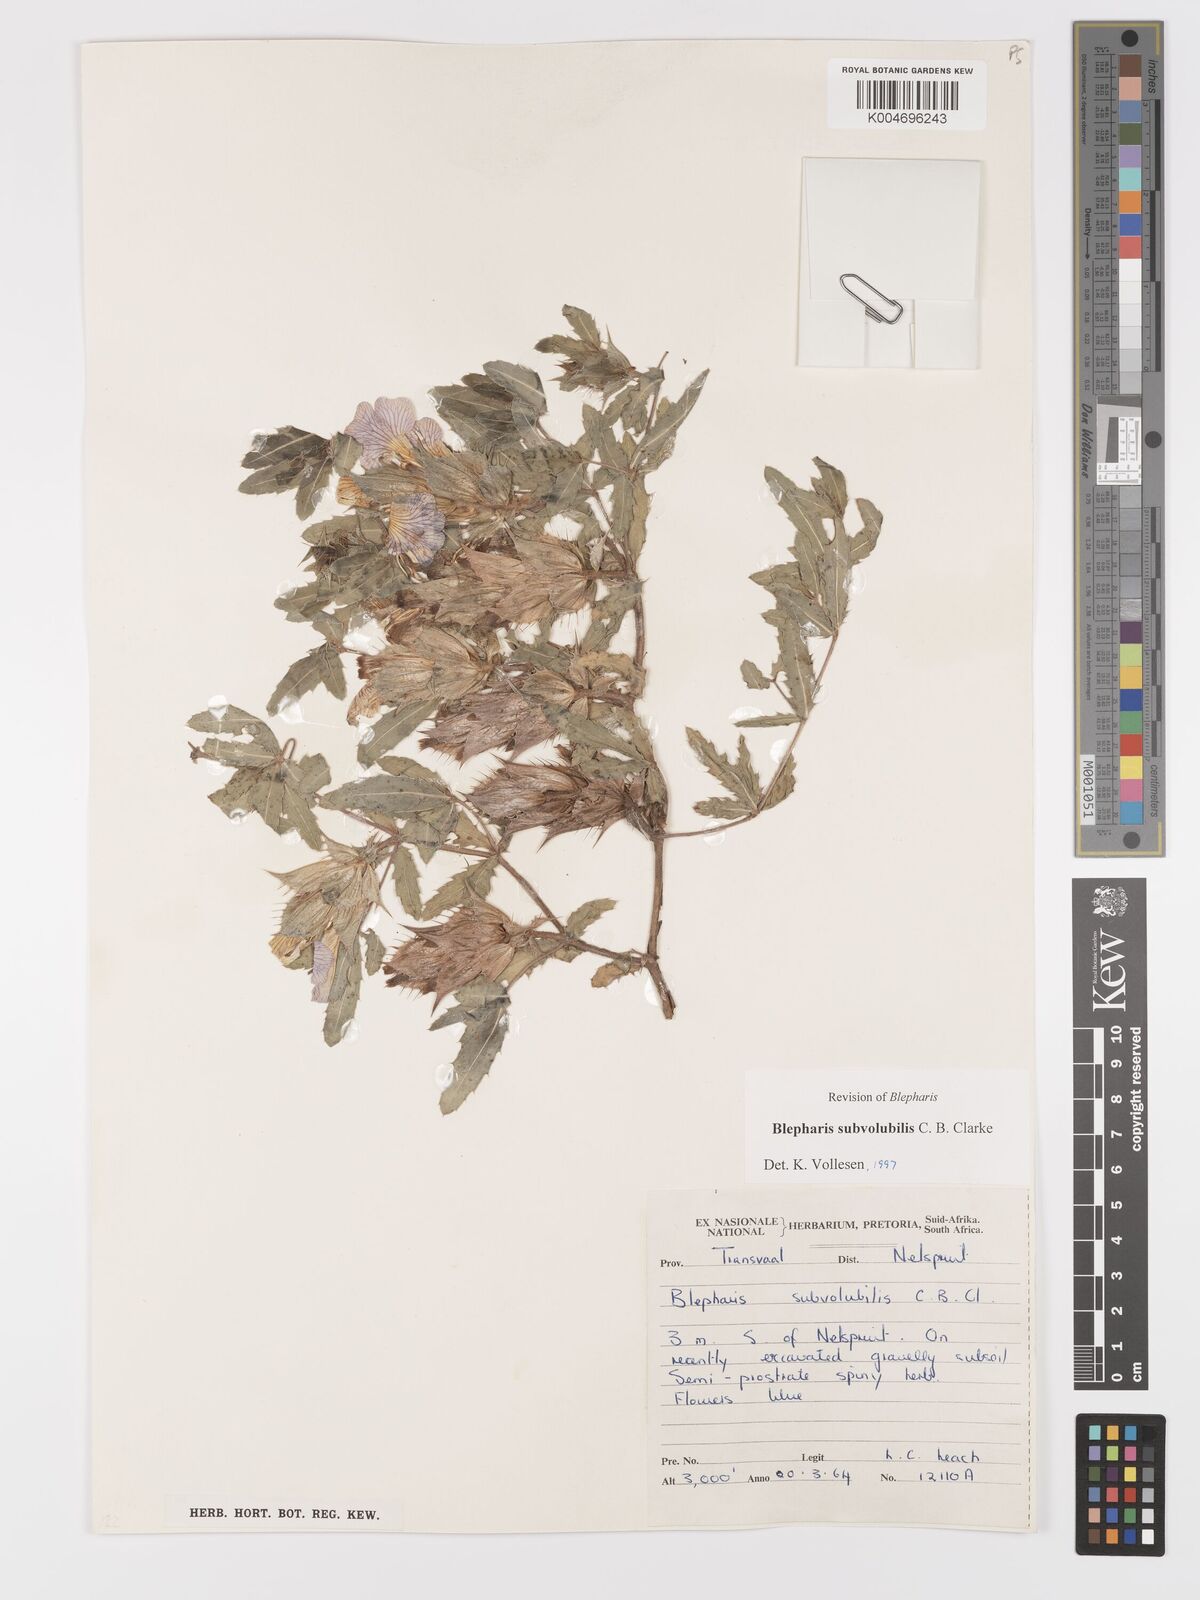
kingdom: Plantae
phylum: Tracheophyta
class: Magnoliopsida
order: Lamiales
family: Acanthaceae
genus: Blepharis
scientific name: Blepharis subvolubilis
